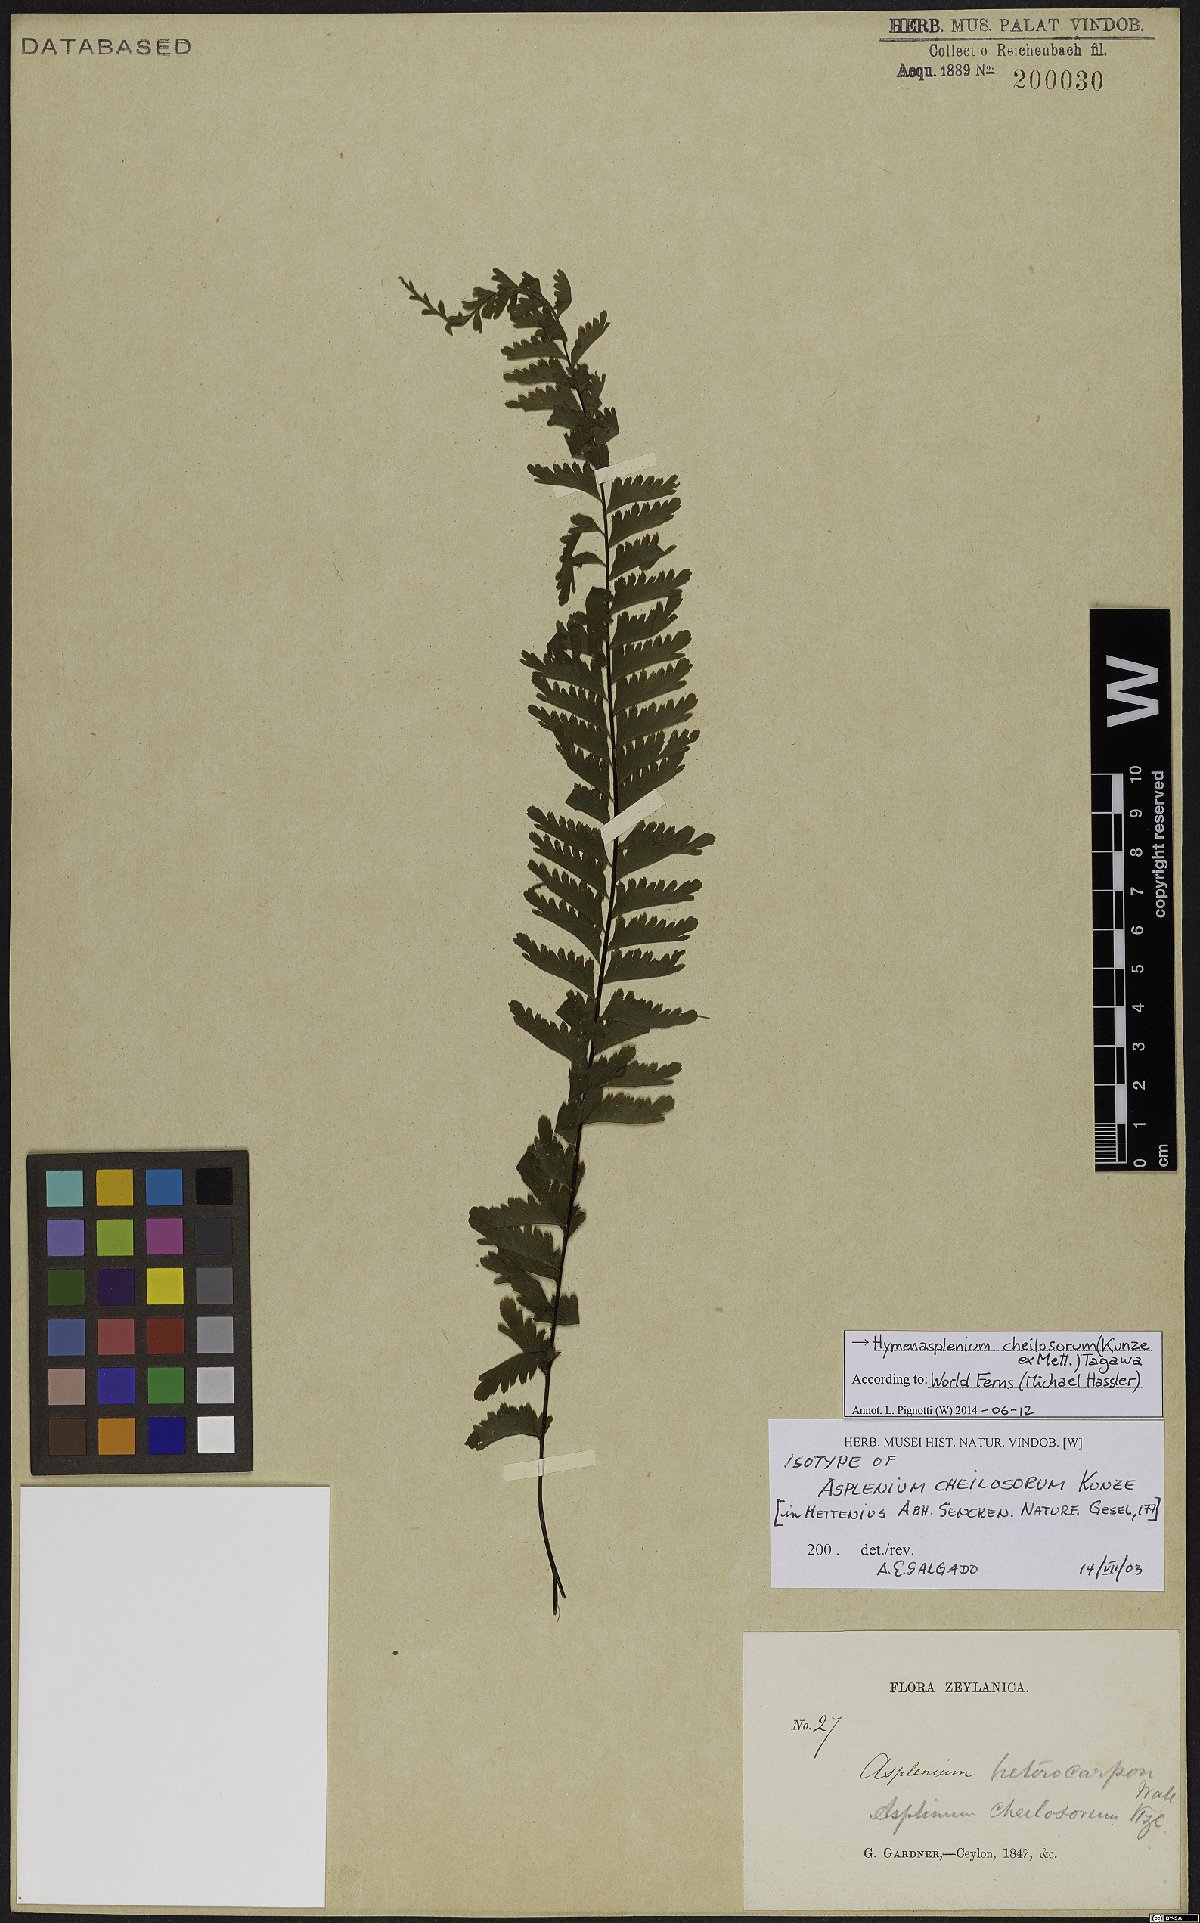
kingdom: Plantae
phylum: Tracheophyta
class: Polypodiopsida
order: Polypodiales
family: Aspleniaceae
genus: Hymenasplenium
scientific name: Hymenasplenium cheilosorum
